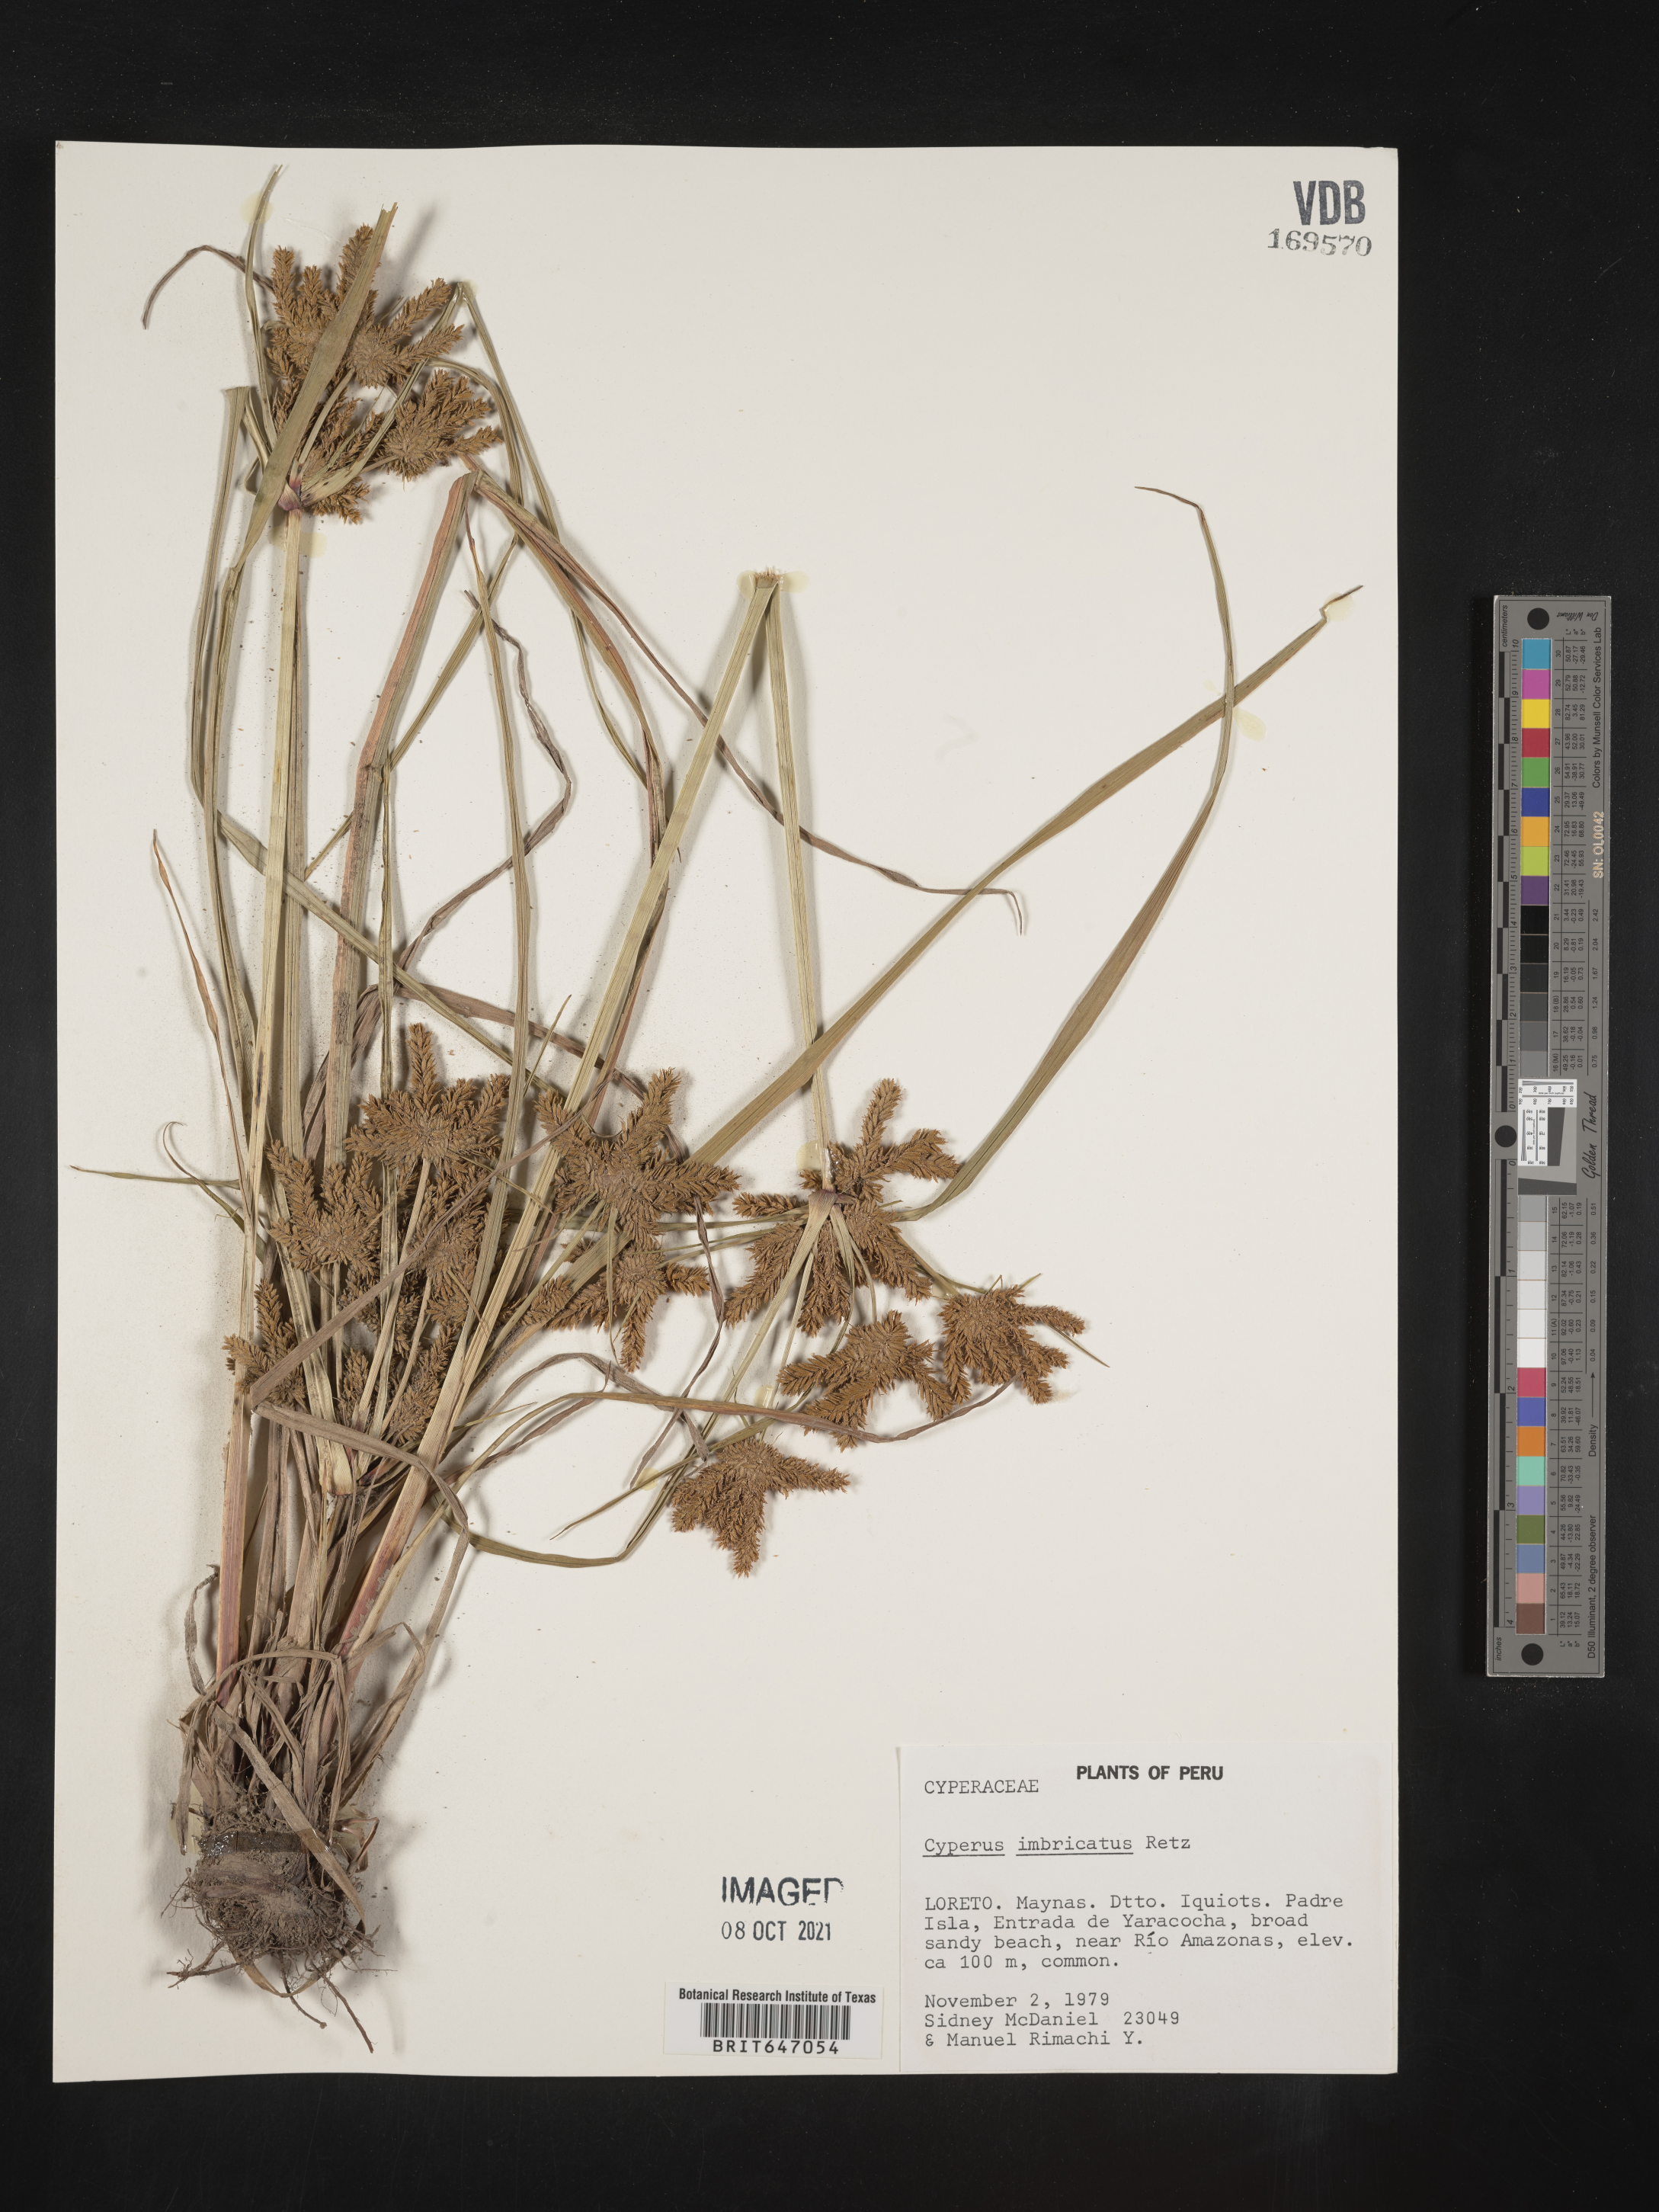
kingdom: Plantae
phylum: Tracheophyta
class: Liliopsida
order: Poales
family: Cyperaceae
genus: Cyperus
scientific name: Cyperus imbricatus
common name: Shingle flatsedge
